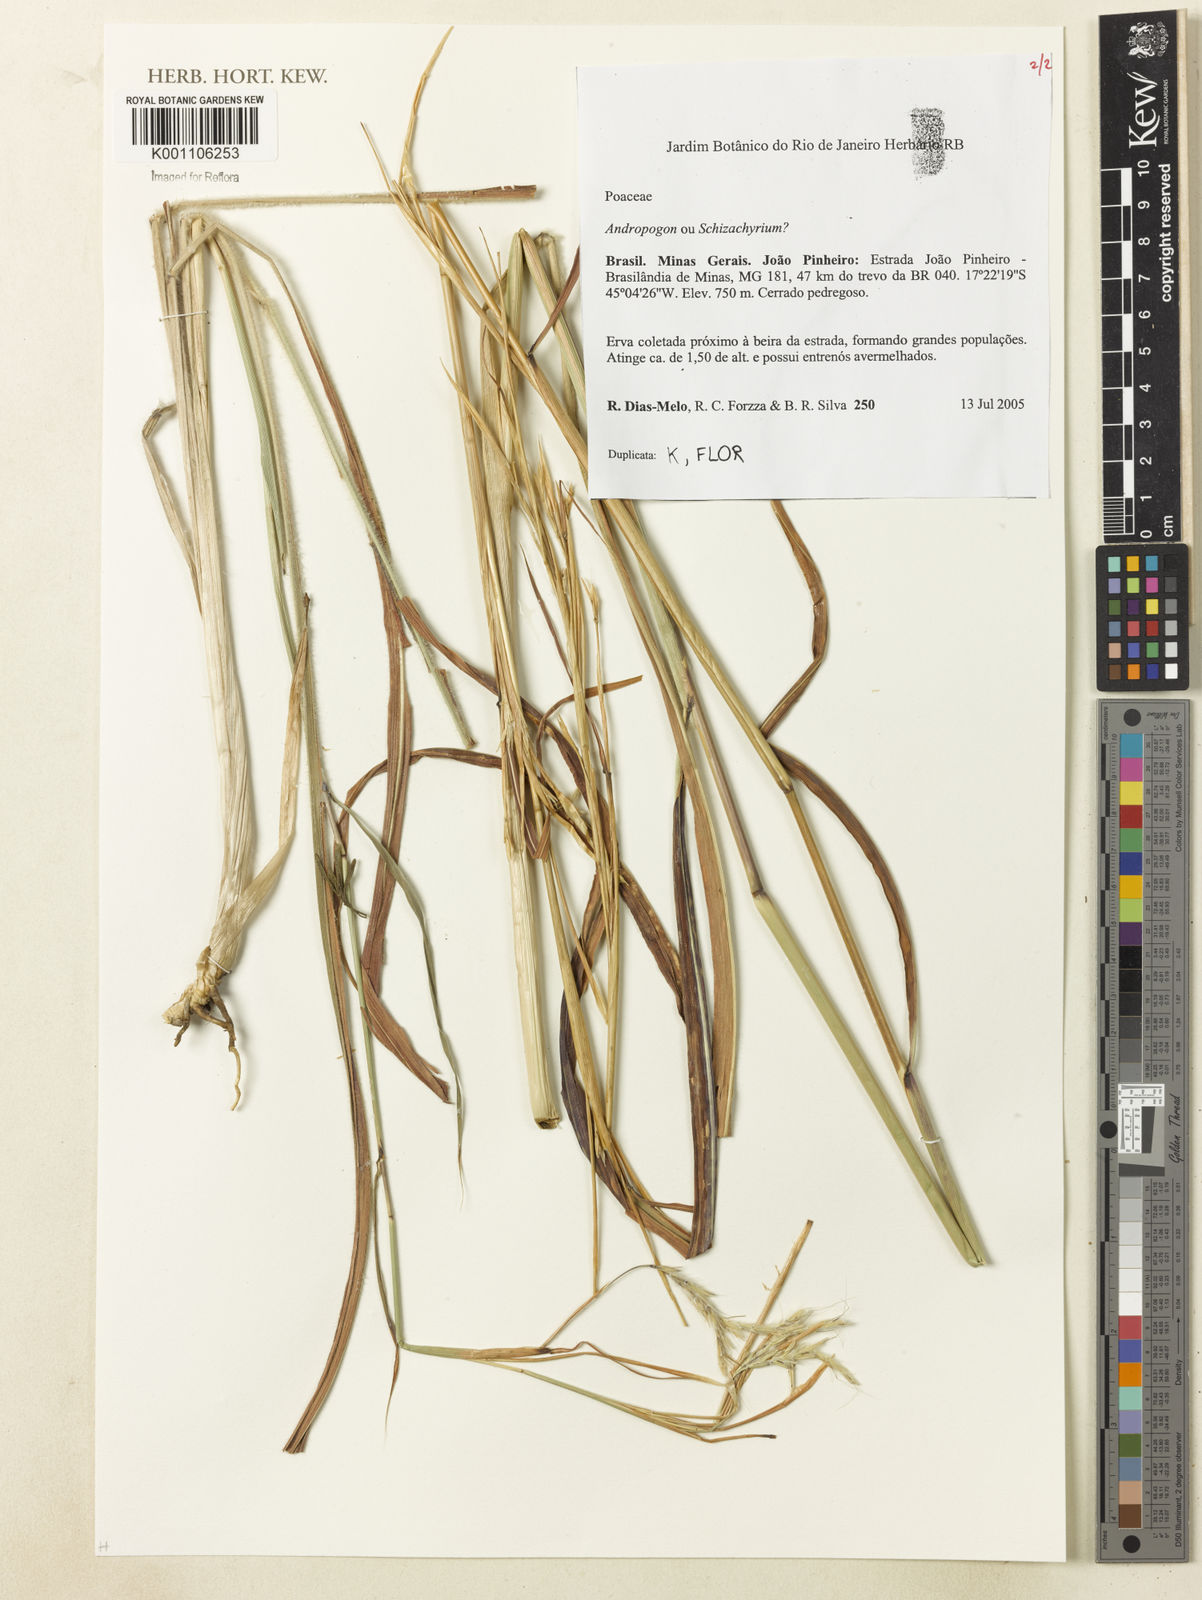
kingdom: Plantae
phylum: Tracheophyta
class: Liliopsida
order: Poales
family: Poaceae
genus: Andropogon
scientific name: Andropogon
